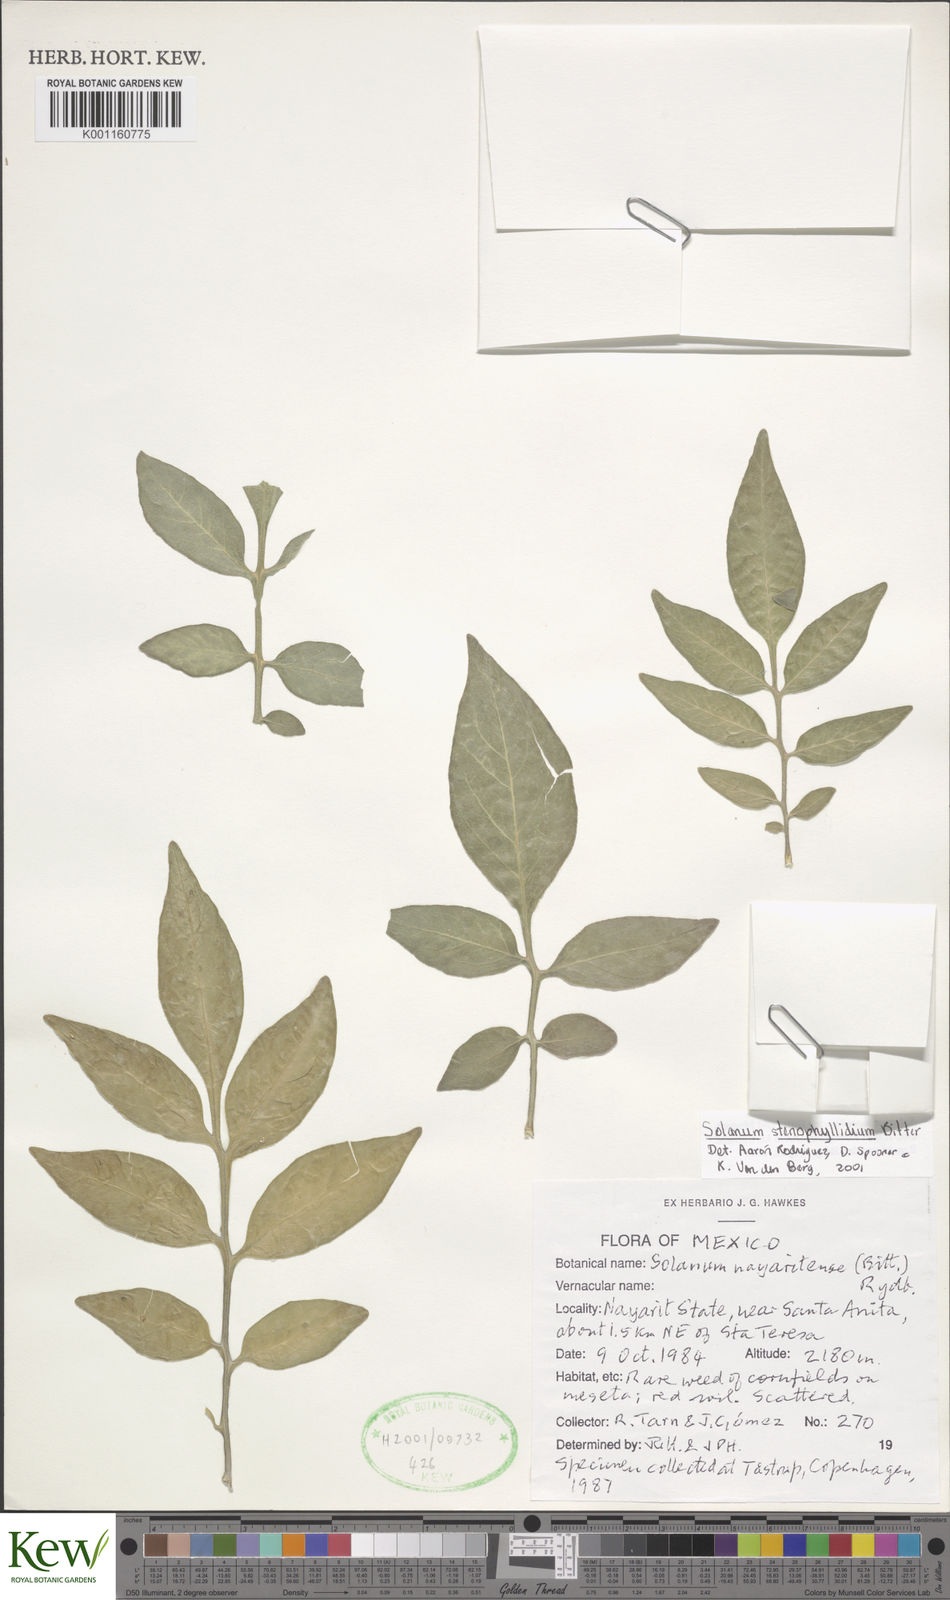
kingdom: Plantae
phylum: Tracheophyta
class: Magnoliopsida
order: Solanales
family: Solanaceae
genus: Solanum
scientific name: Solanum stenophyllidium
